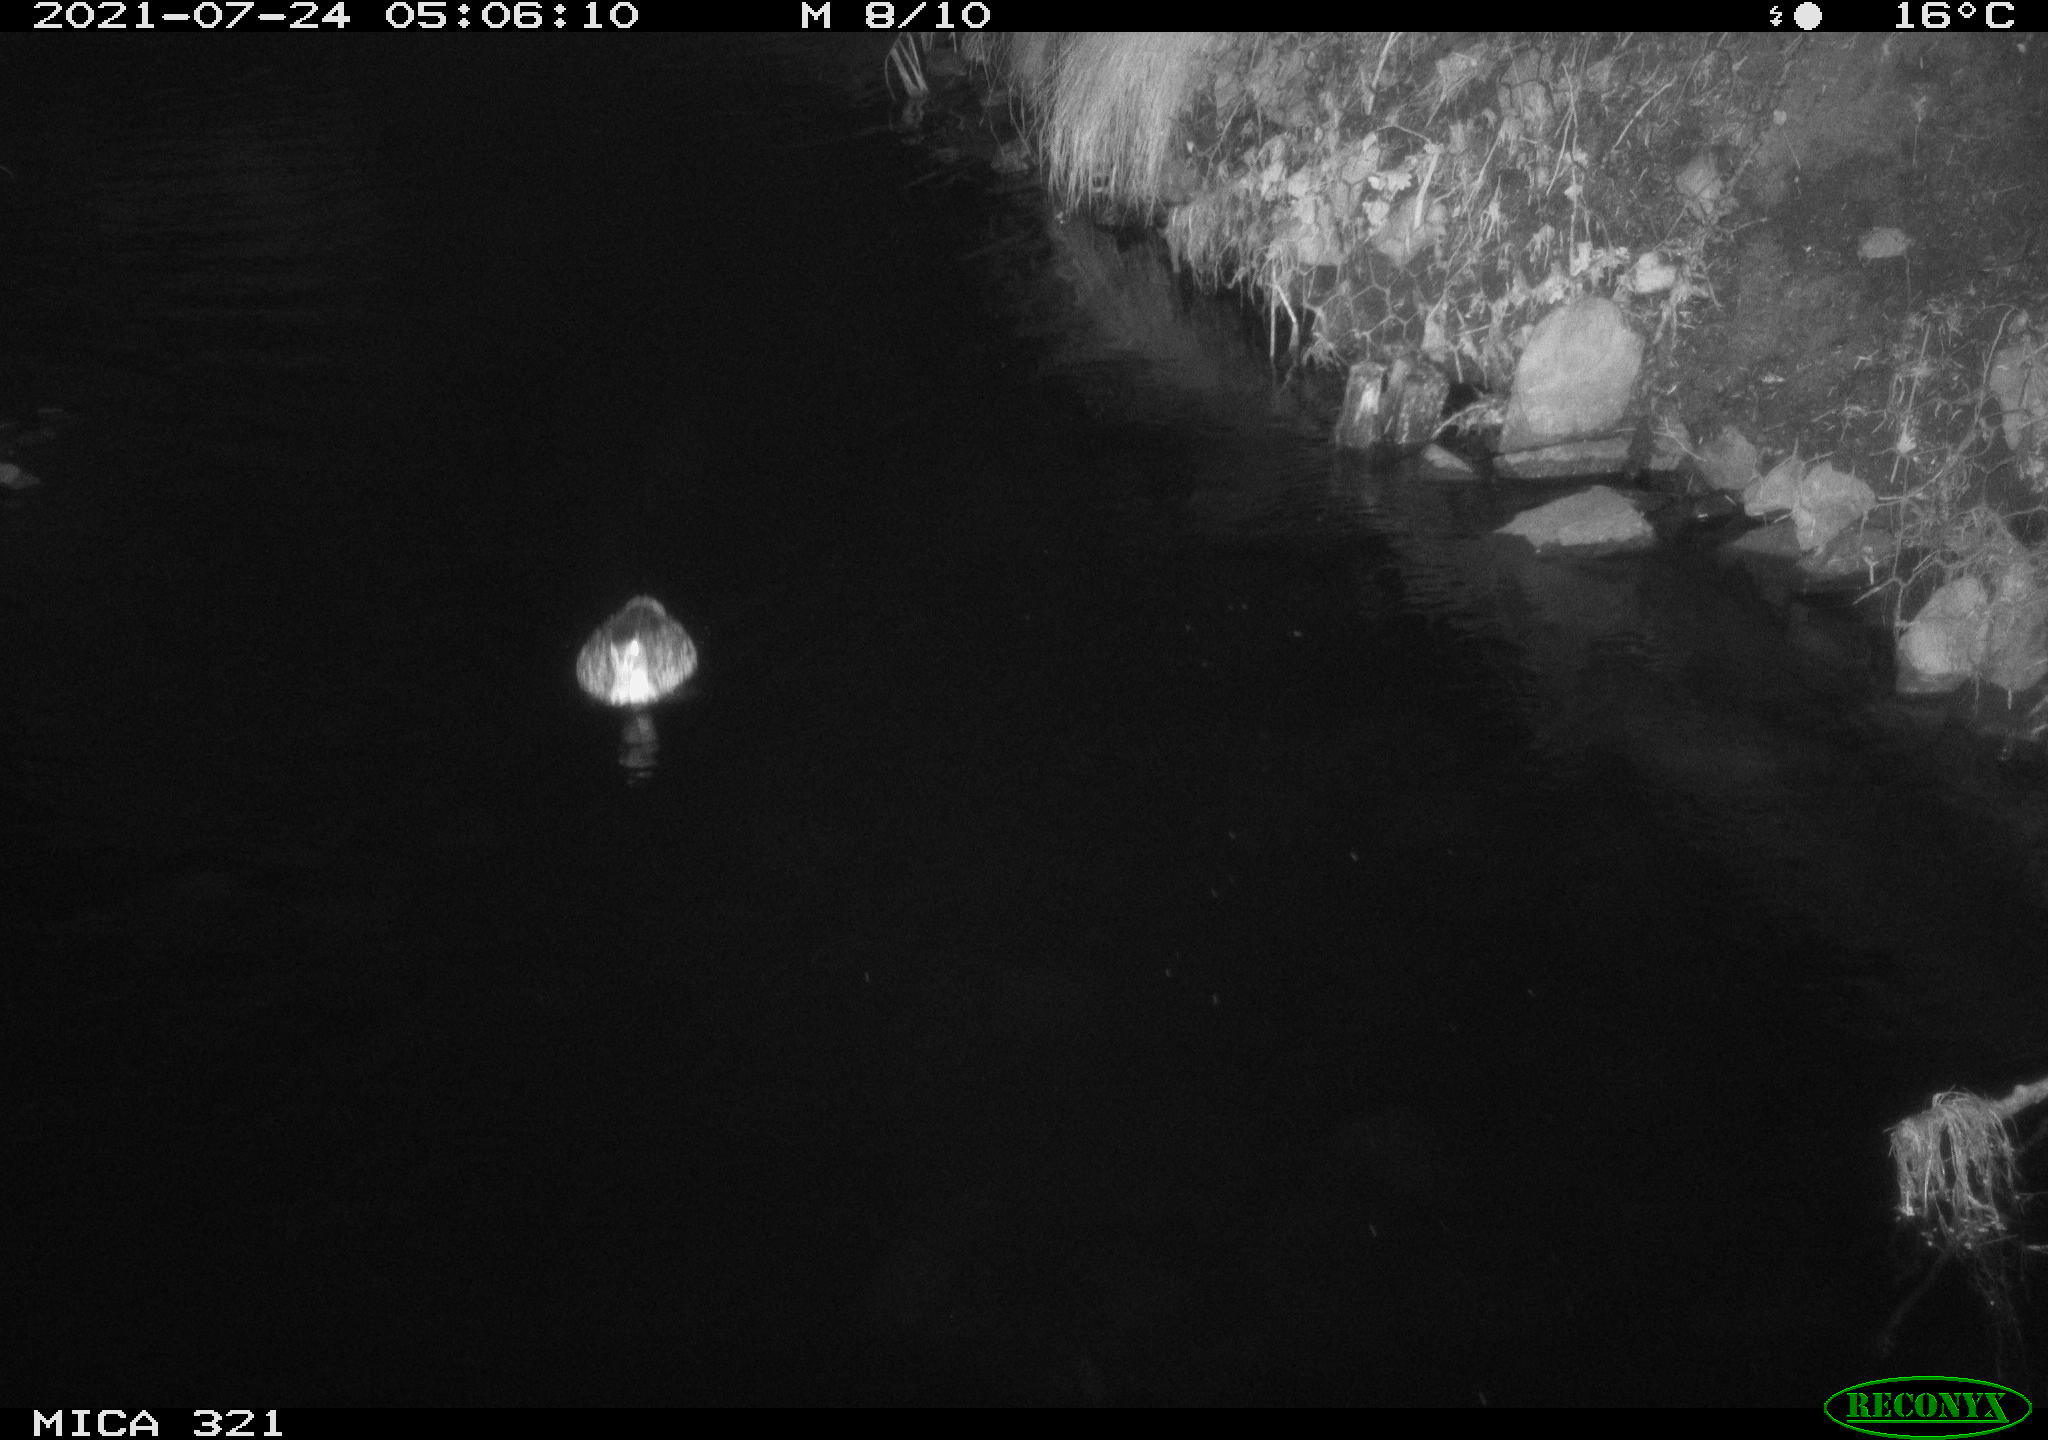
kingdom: Animalia
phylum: Chordata
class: Aves
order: Anseriformes
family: Anatidae
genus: Anas
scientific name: Anas platyrhynchos
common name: Mallard
